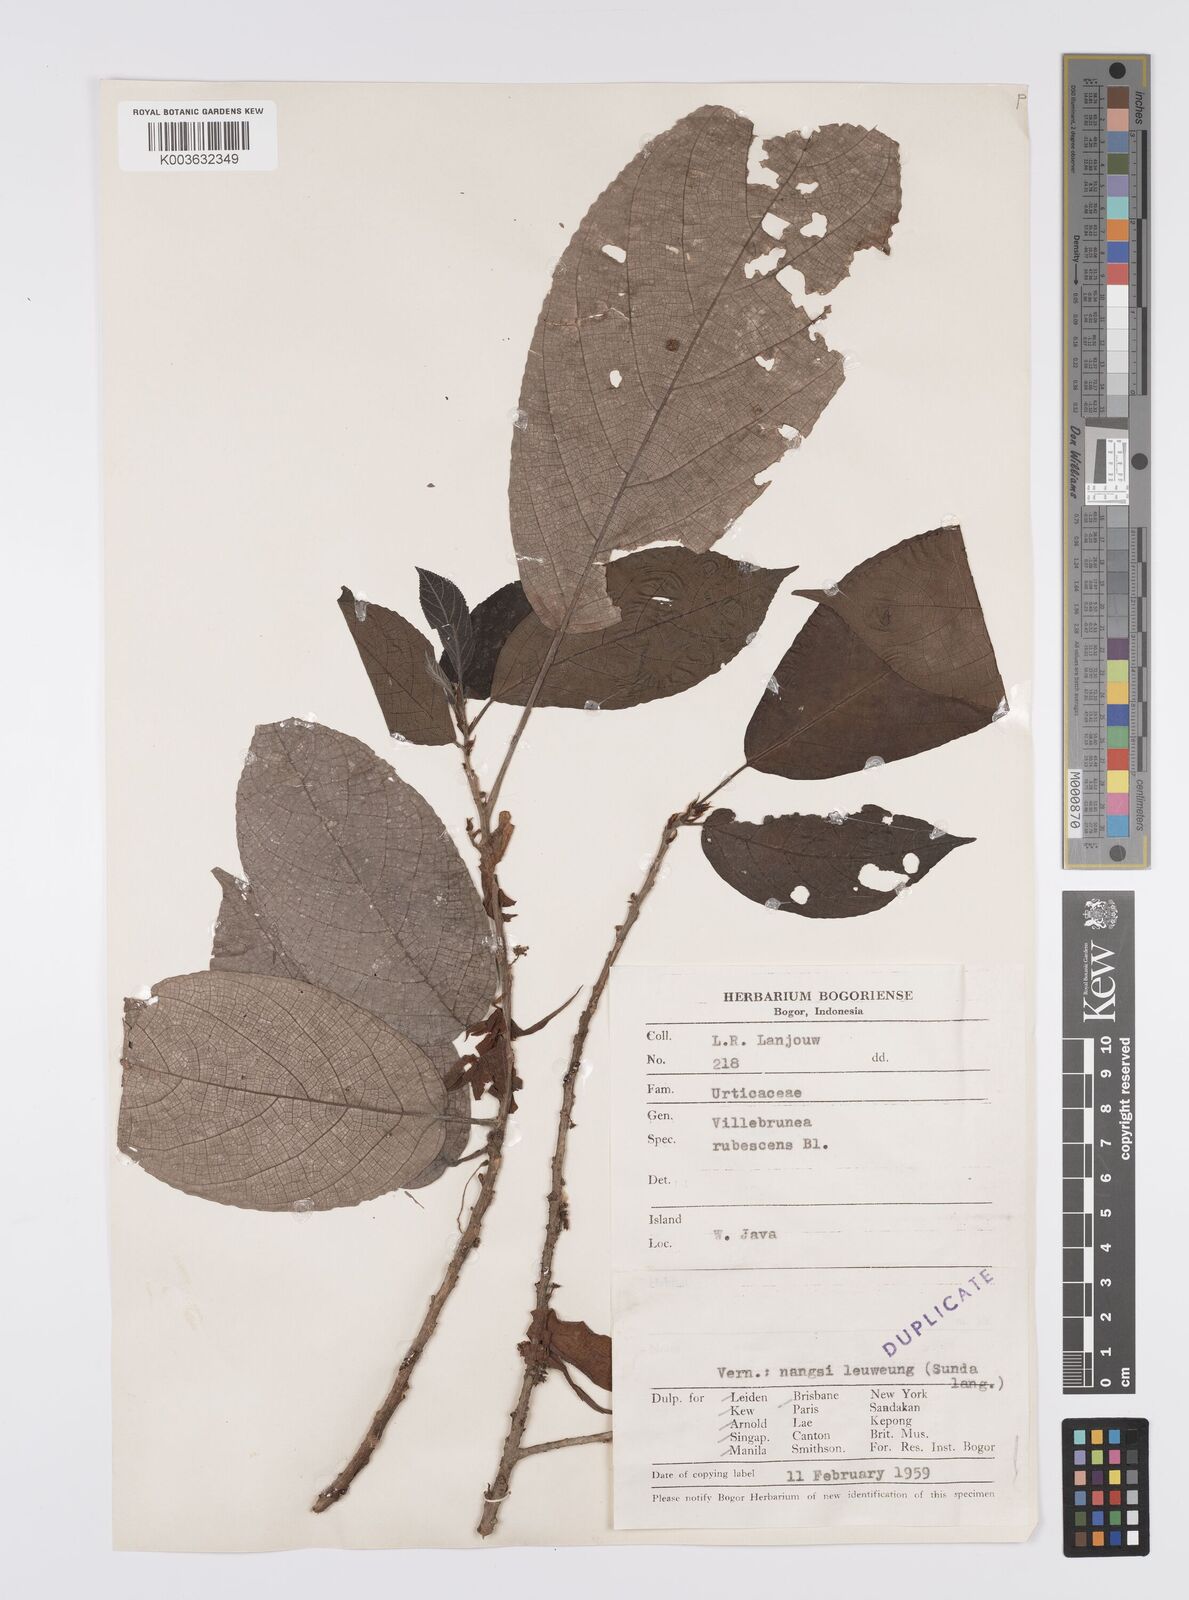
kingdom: Plantae
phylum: Tracheophyta
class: Magnoliopsida
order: Rosales
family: Urticaceae
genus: Oreocnide
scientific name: Oreocnide rubescens
